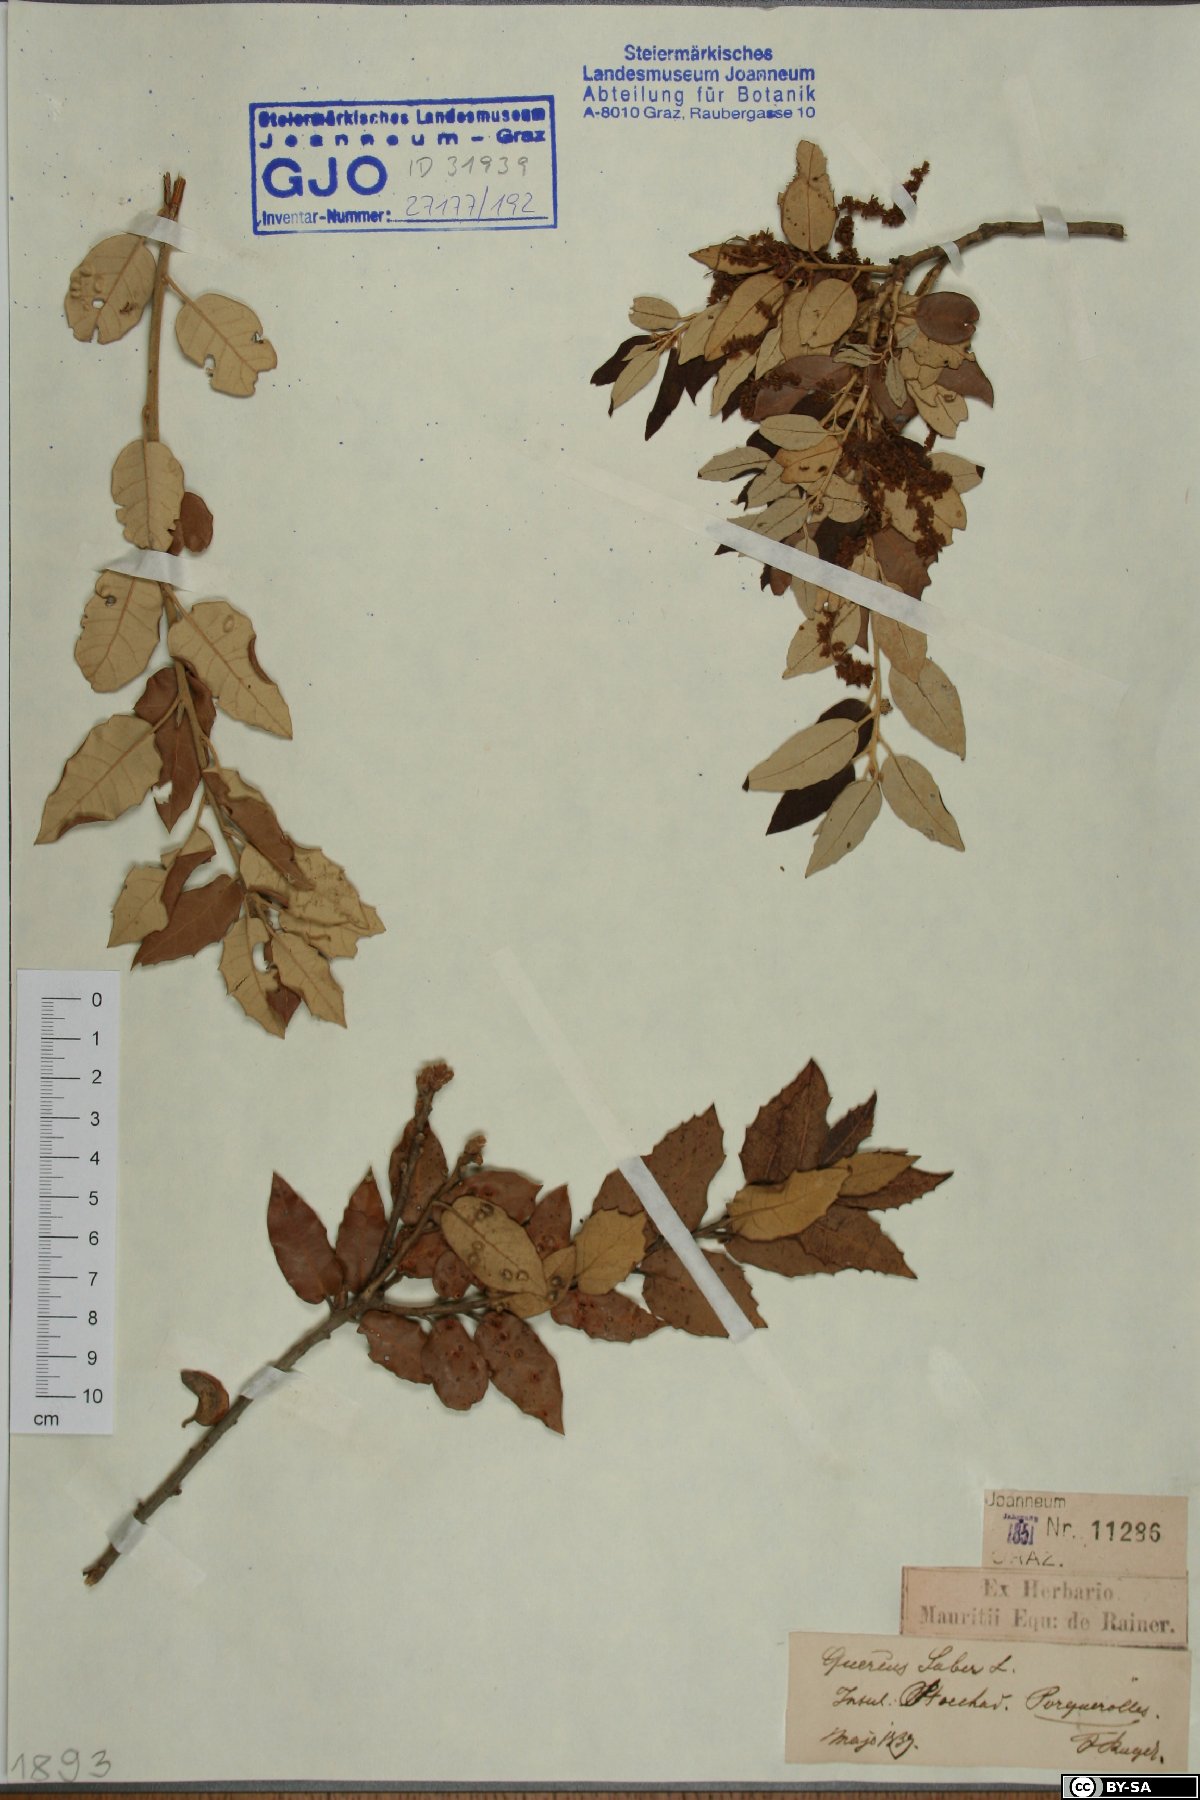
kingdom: Plantae
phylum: Tracheophyta
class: Magnoliopsida
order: Fagales
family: Fagaceae
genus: Quercus
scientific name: Quercus suber
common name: Cork oak
